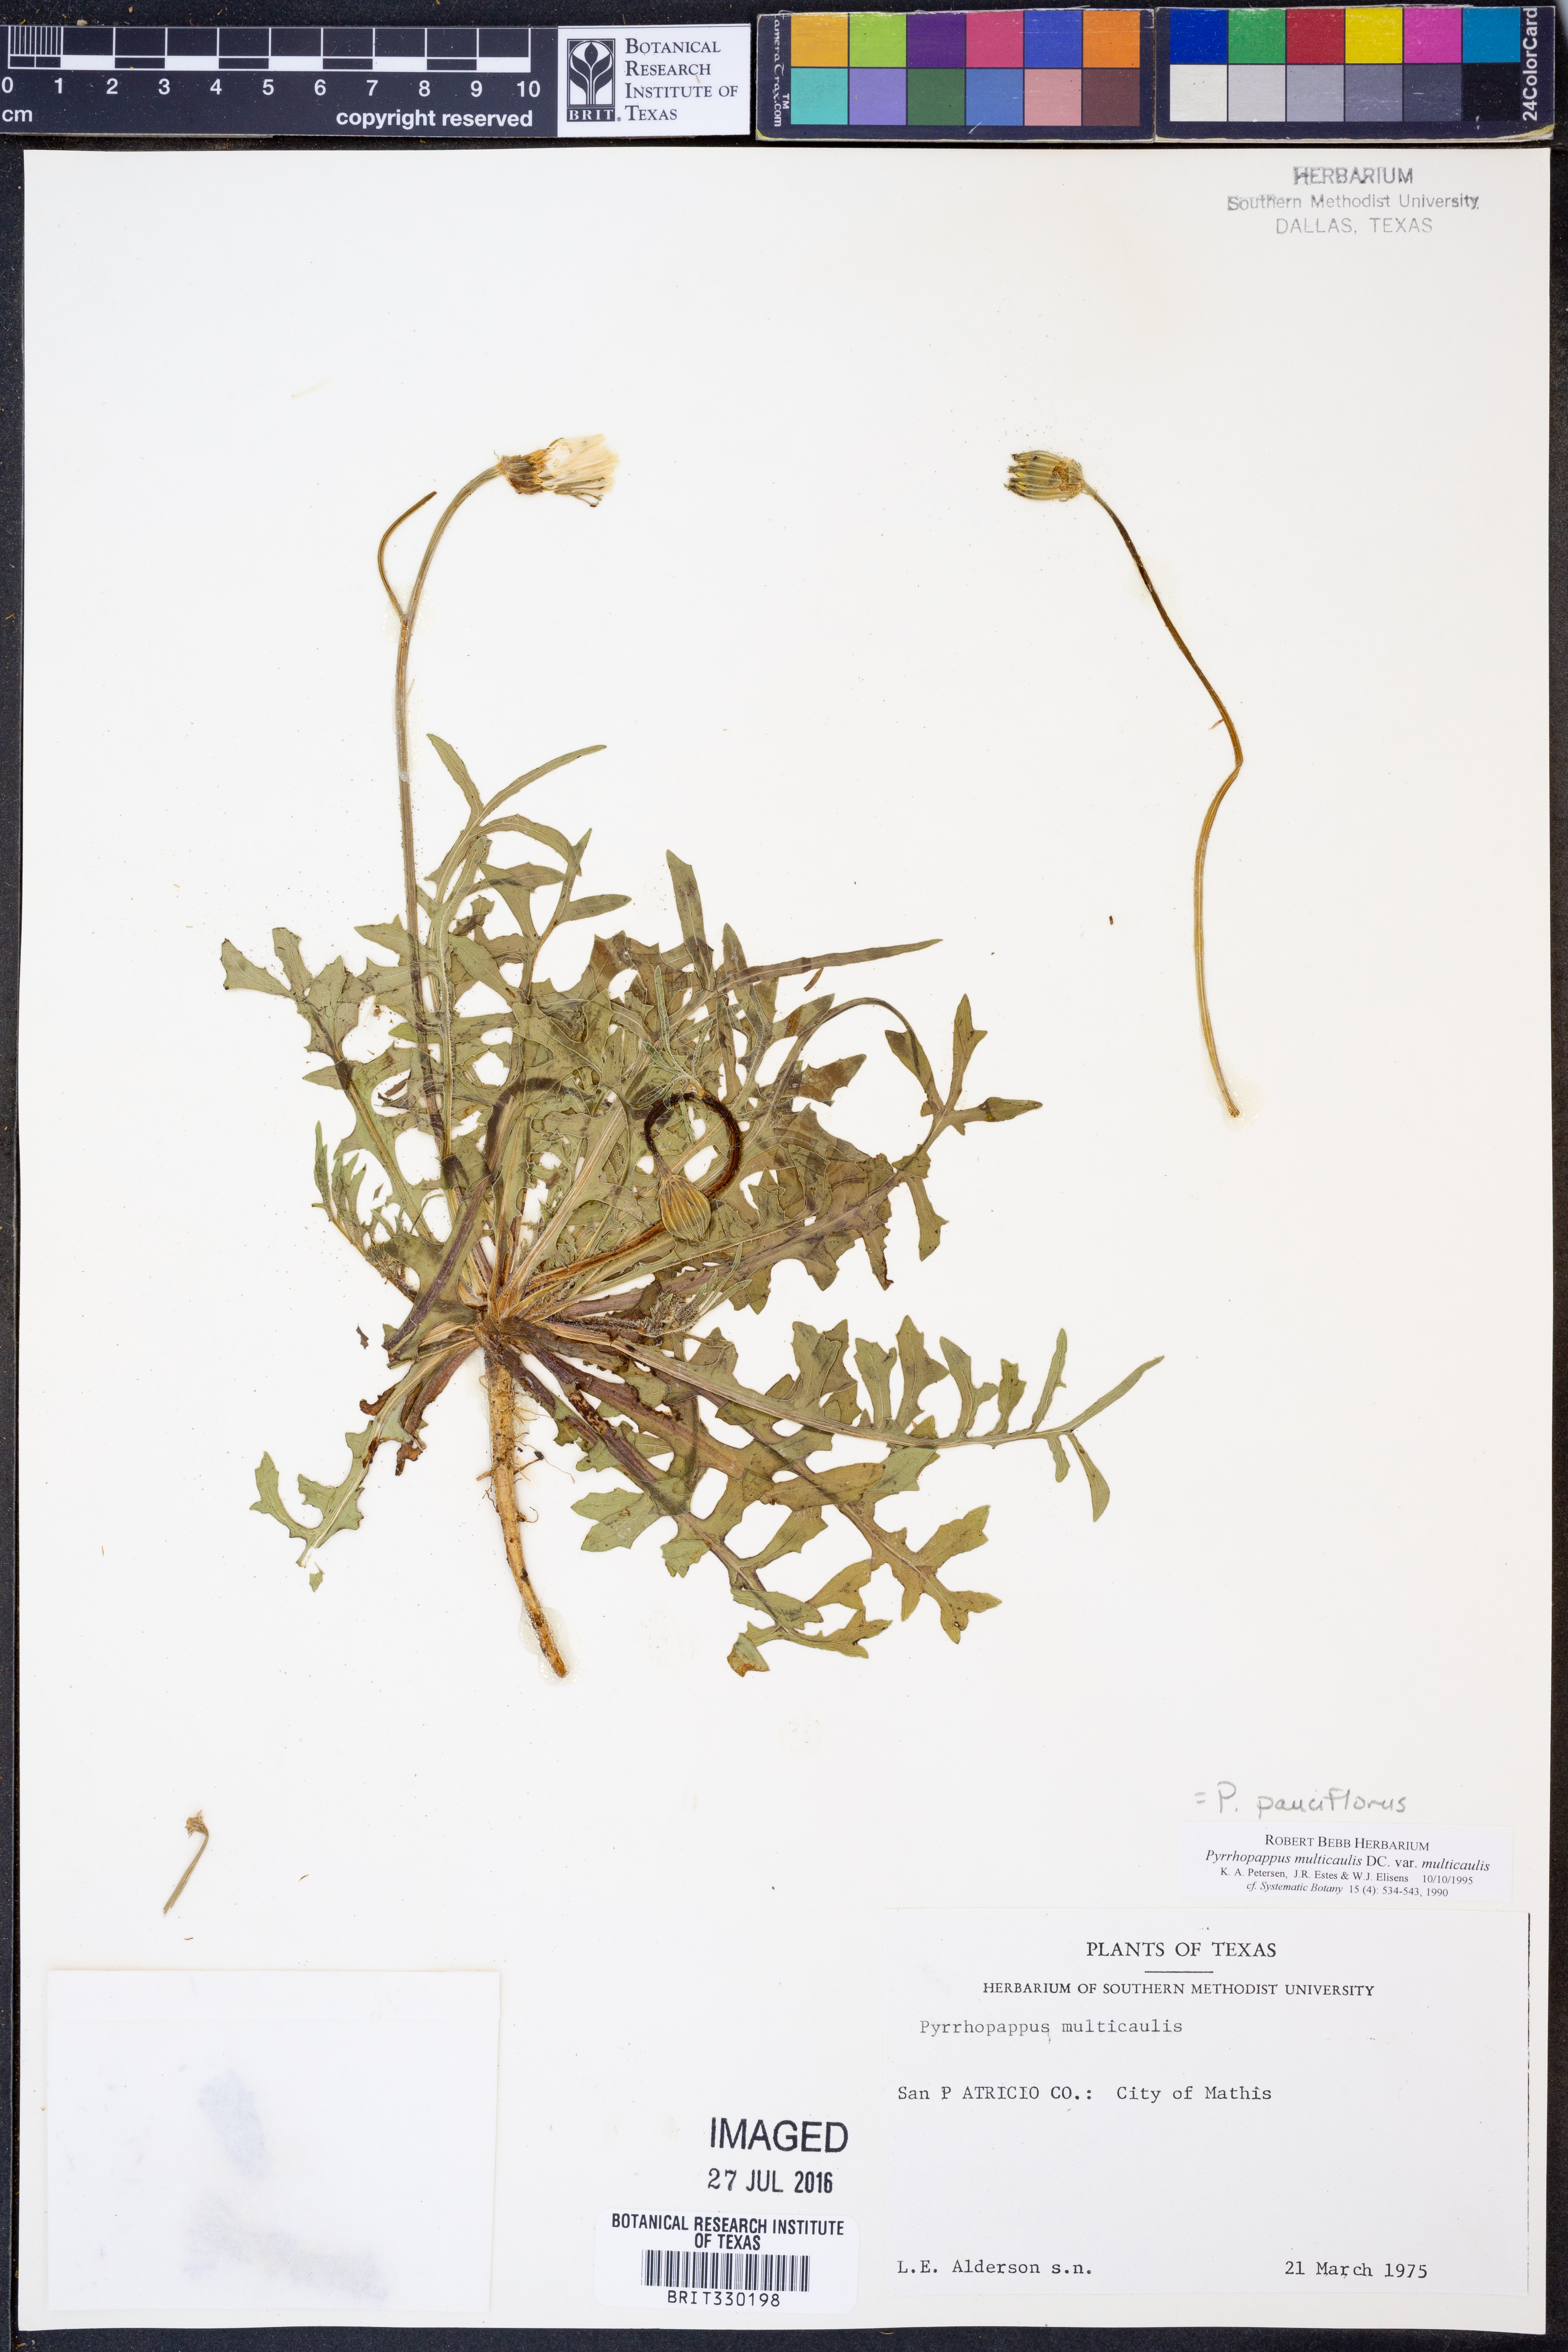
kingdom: Plantae
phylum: Tracheophyta
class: Magnoliopsida
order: Asterales
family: Asteraceae
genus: Pyrrhopappus
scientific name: Pyrrhopappus pauciflorus
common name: Texas false dandelion
